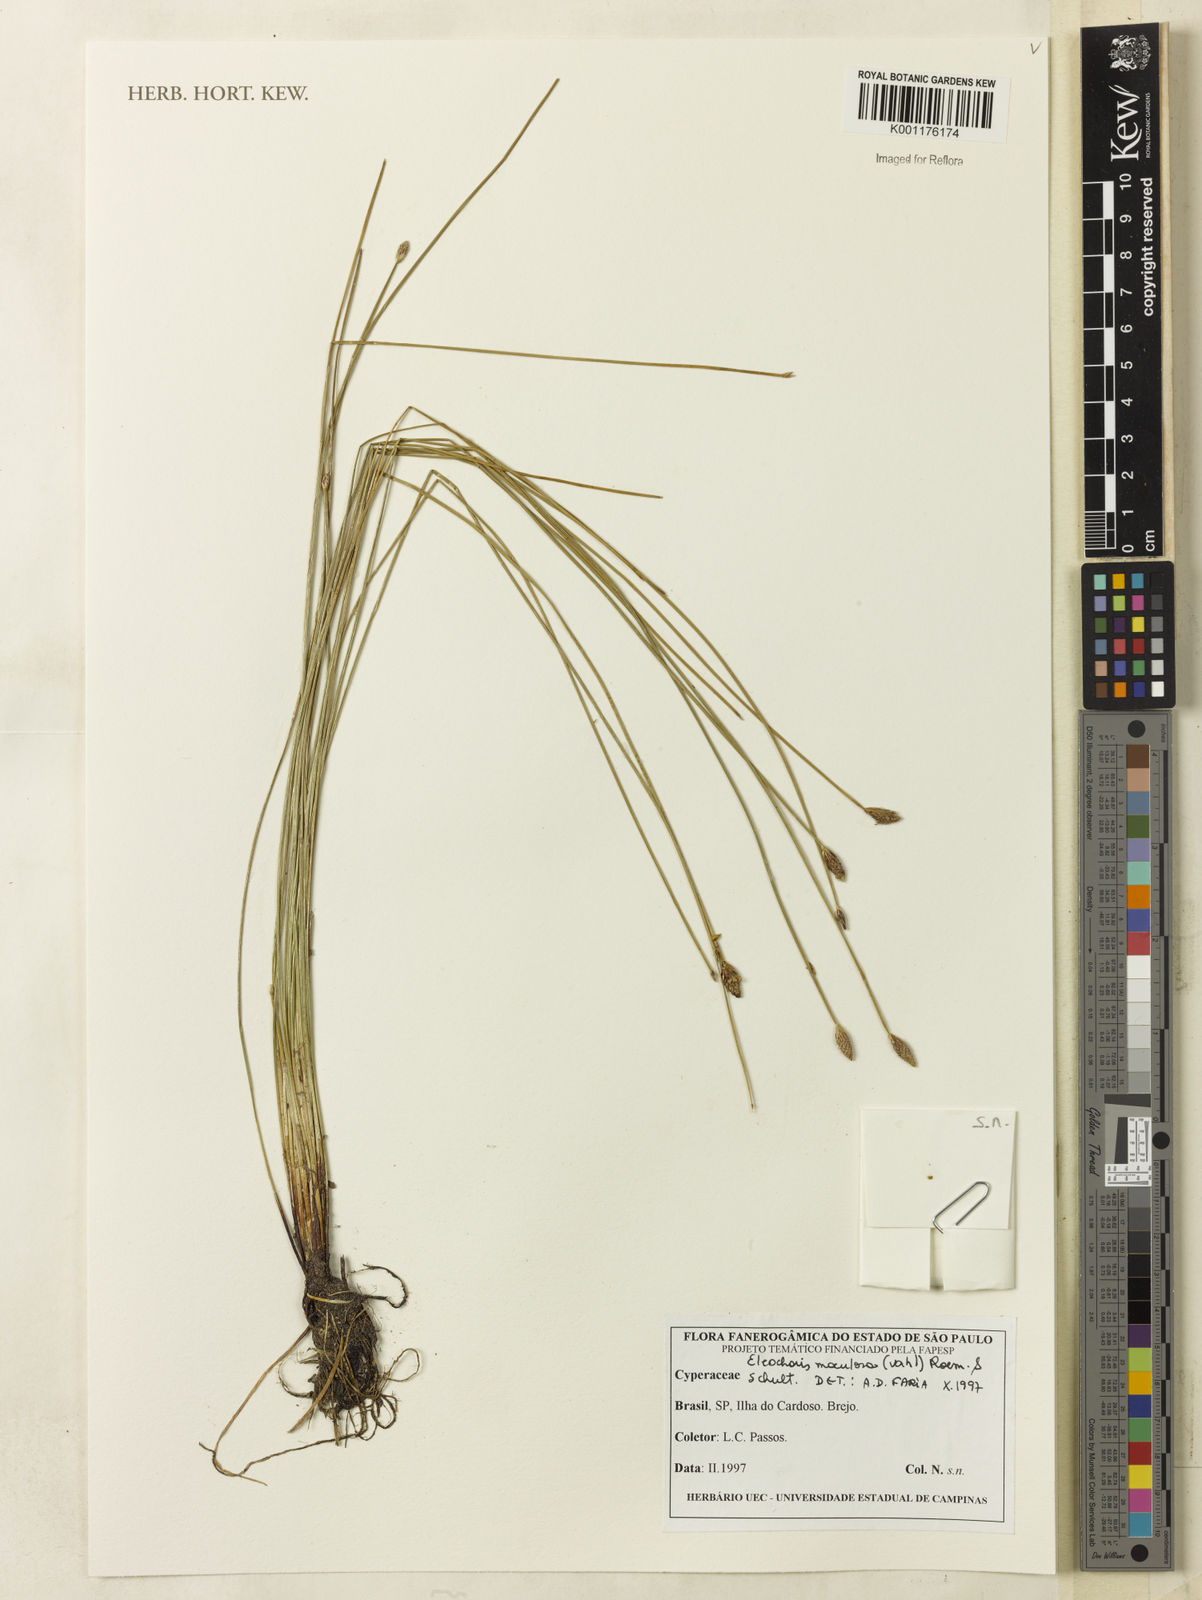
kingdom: Plantae
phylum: Tracheophyta
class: Liliopsida
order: Poales
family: Cyperaceae
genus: Eleocharis
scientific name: Eleocharis maculosa
